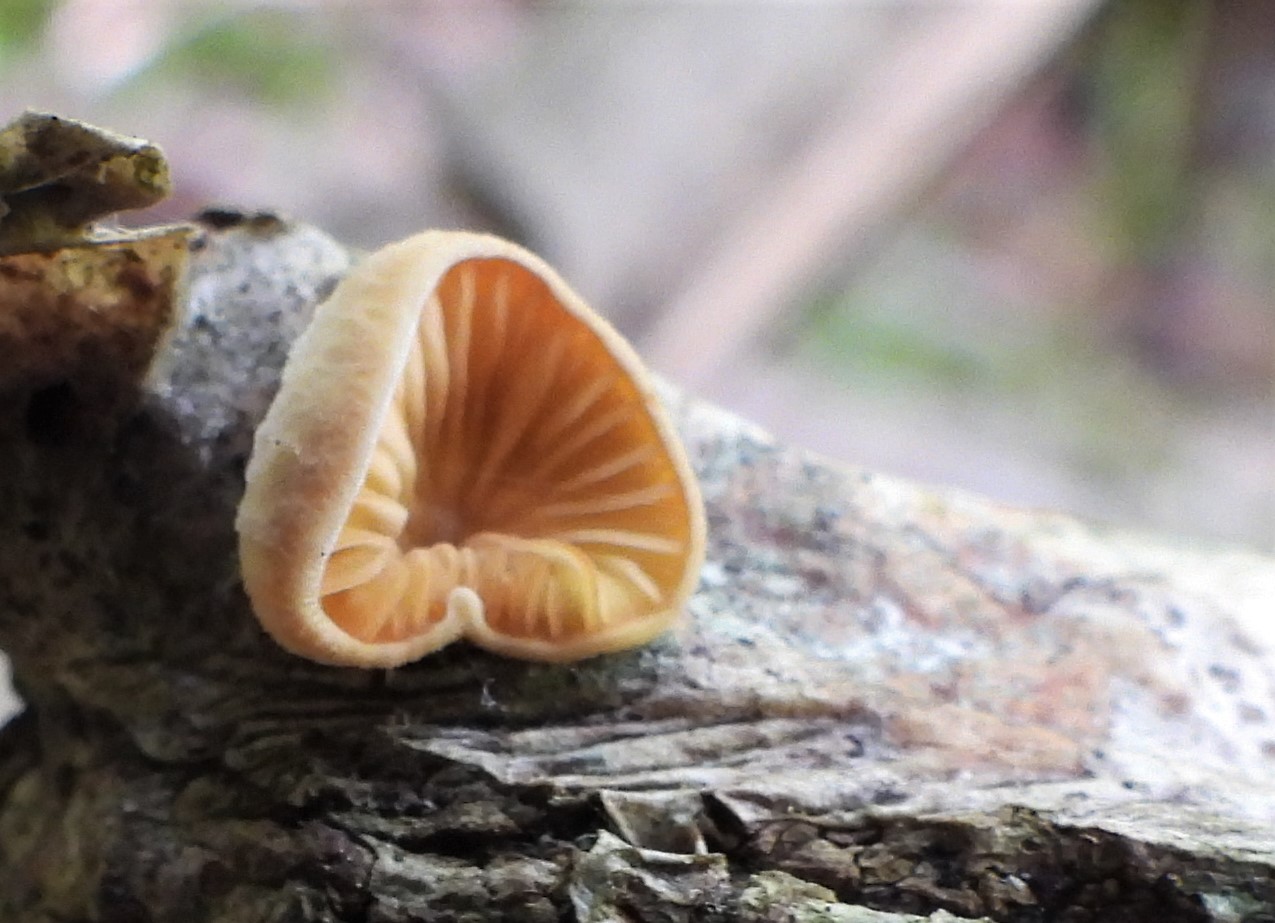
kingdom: Fungi
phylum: Basidiomycota
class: Agaricomycetes
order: Agaricales
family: Phyllotopsidaceae
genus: Phyllotopsis
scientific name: Phyllotopsis nidulans
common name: okkerblad
